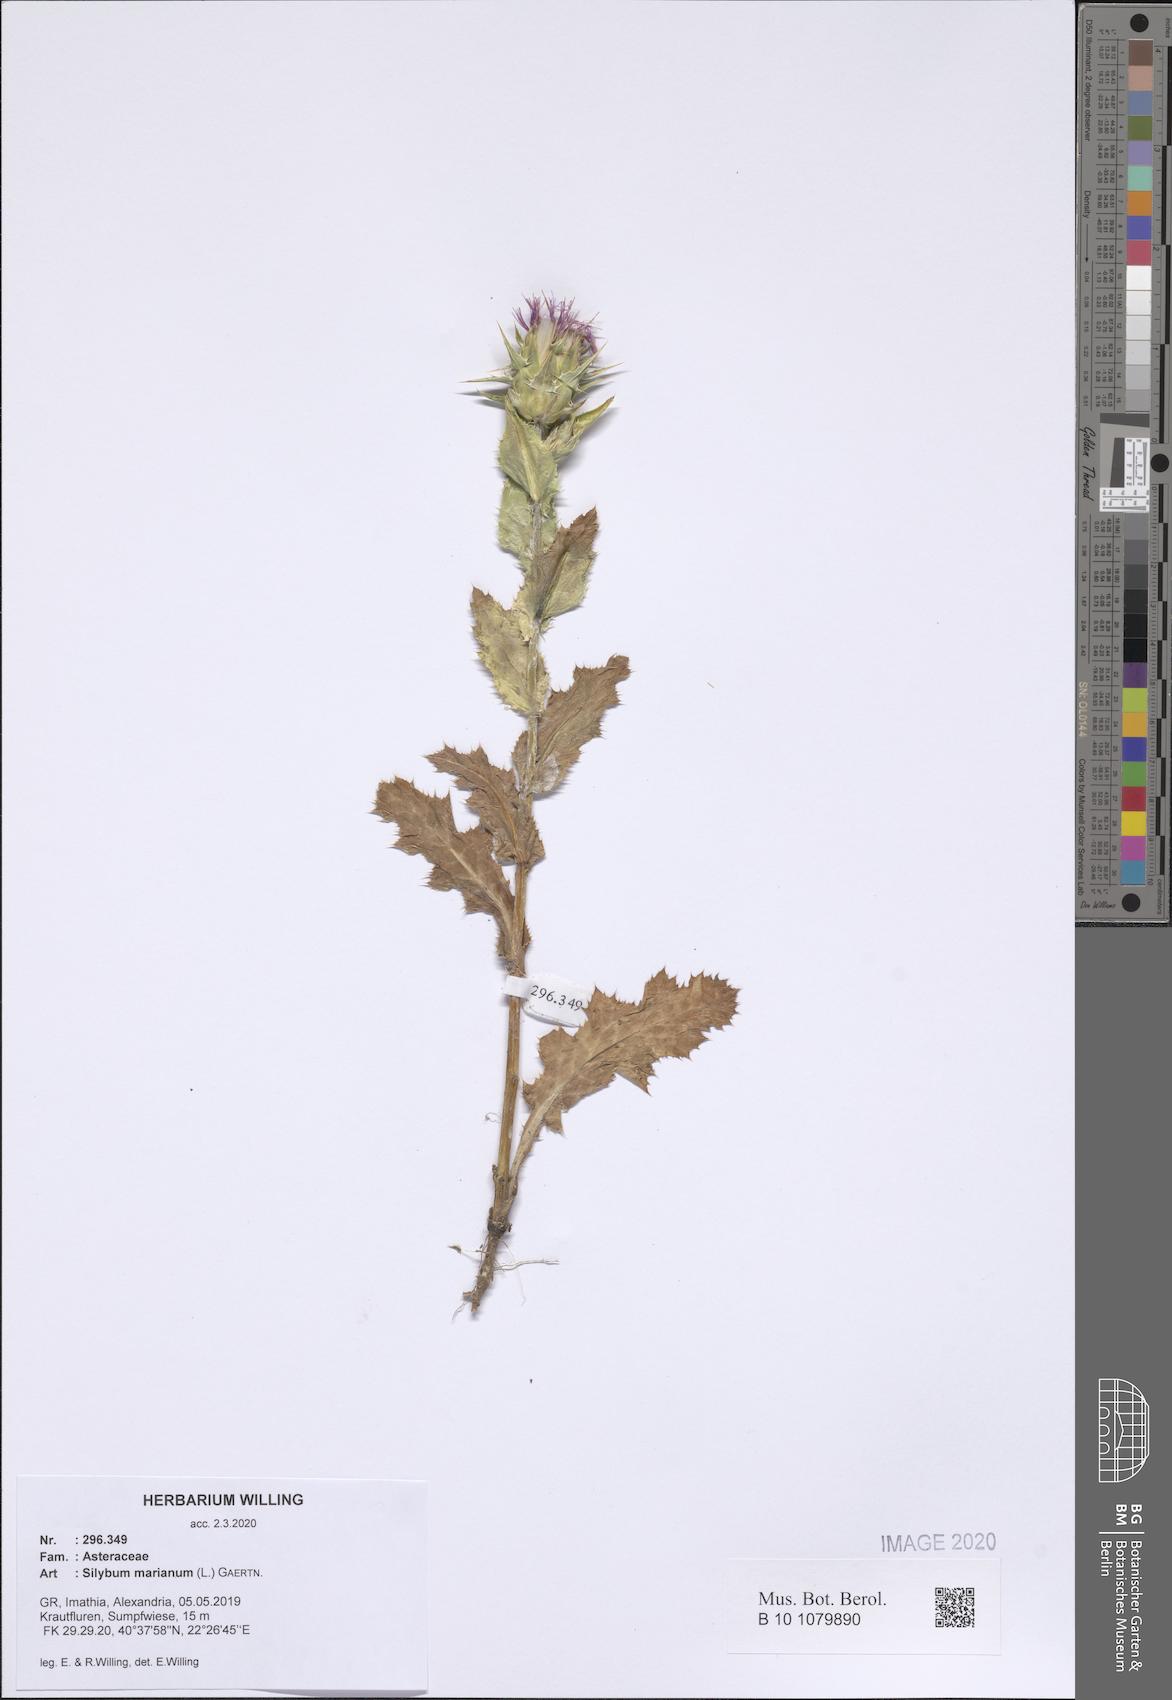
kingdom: Plantae
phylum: Tracheophyta
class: Magnoliopsida
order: Asterales
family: Asteraceae
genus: Silybum
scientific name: Silybum marianum
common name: Milk thistle
